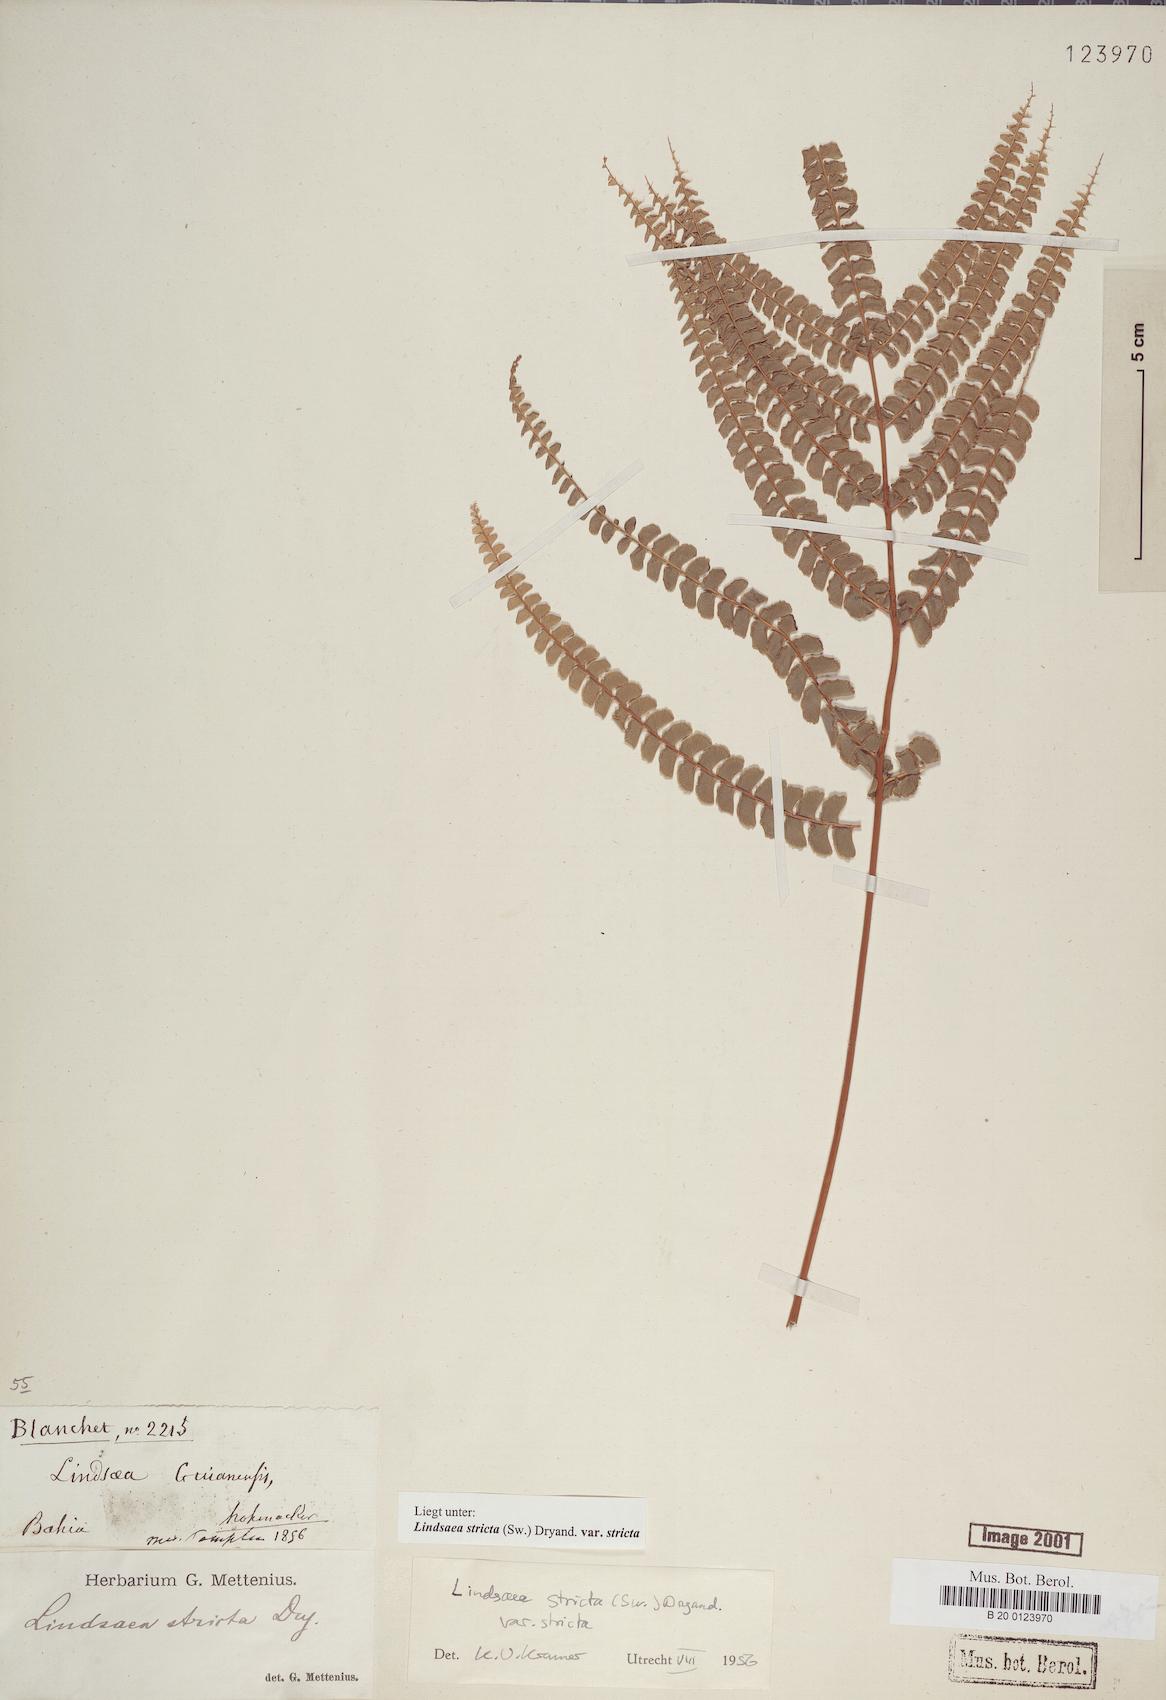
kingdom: Plantae
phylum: Tracheophyta
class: Polypodiopsida
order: Polypodiales
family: Lindsaeaceae
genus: Lindsaea
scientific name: Lindsaea stricta
